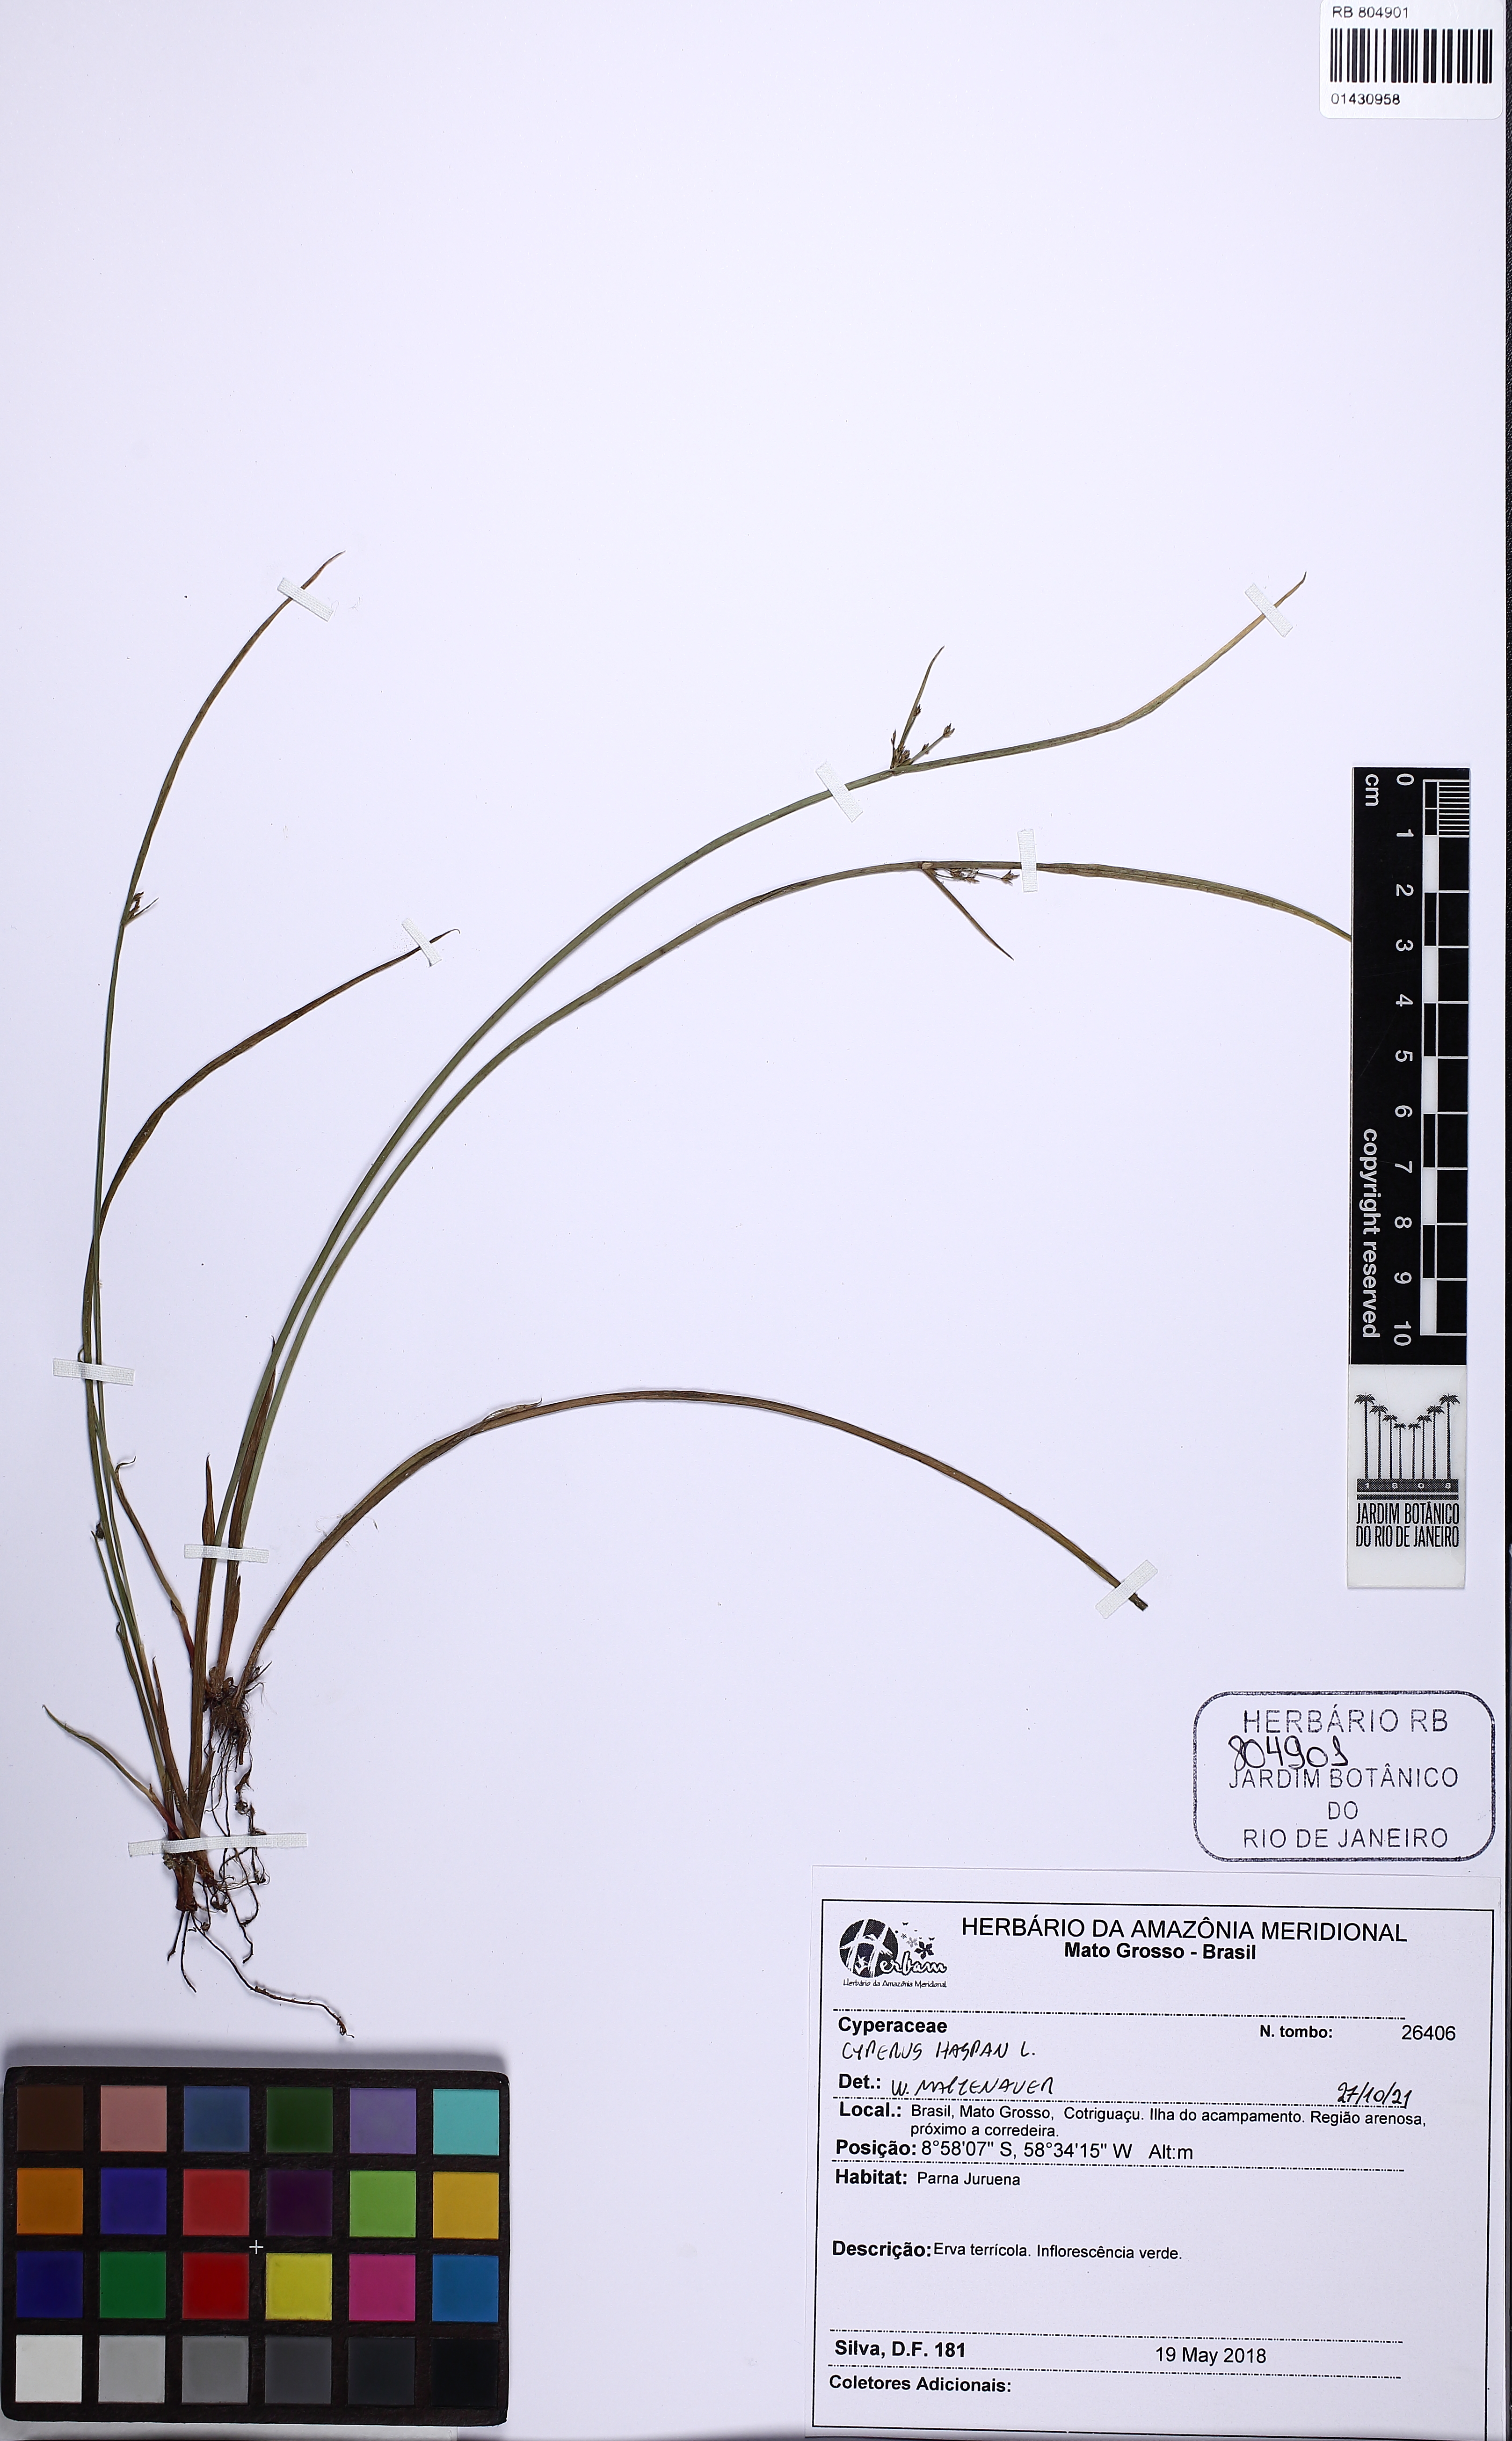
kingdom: Plantae
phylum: Tracheophyta
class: Liliopsida
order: Poales
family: Cyperaceae
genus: Cyperus
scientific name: Cyperus haspan
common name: Haspan flatsedge
